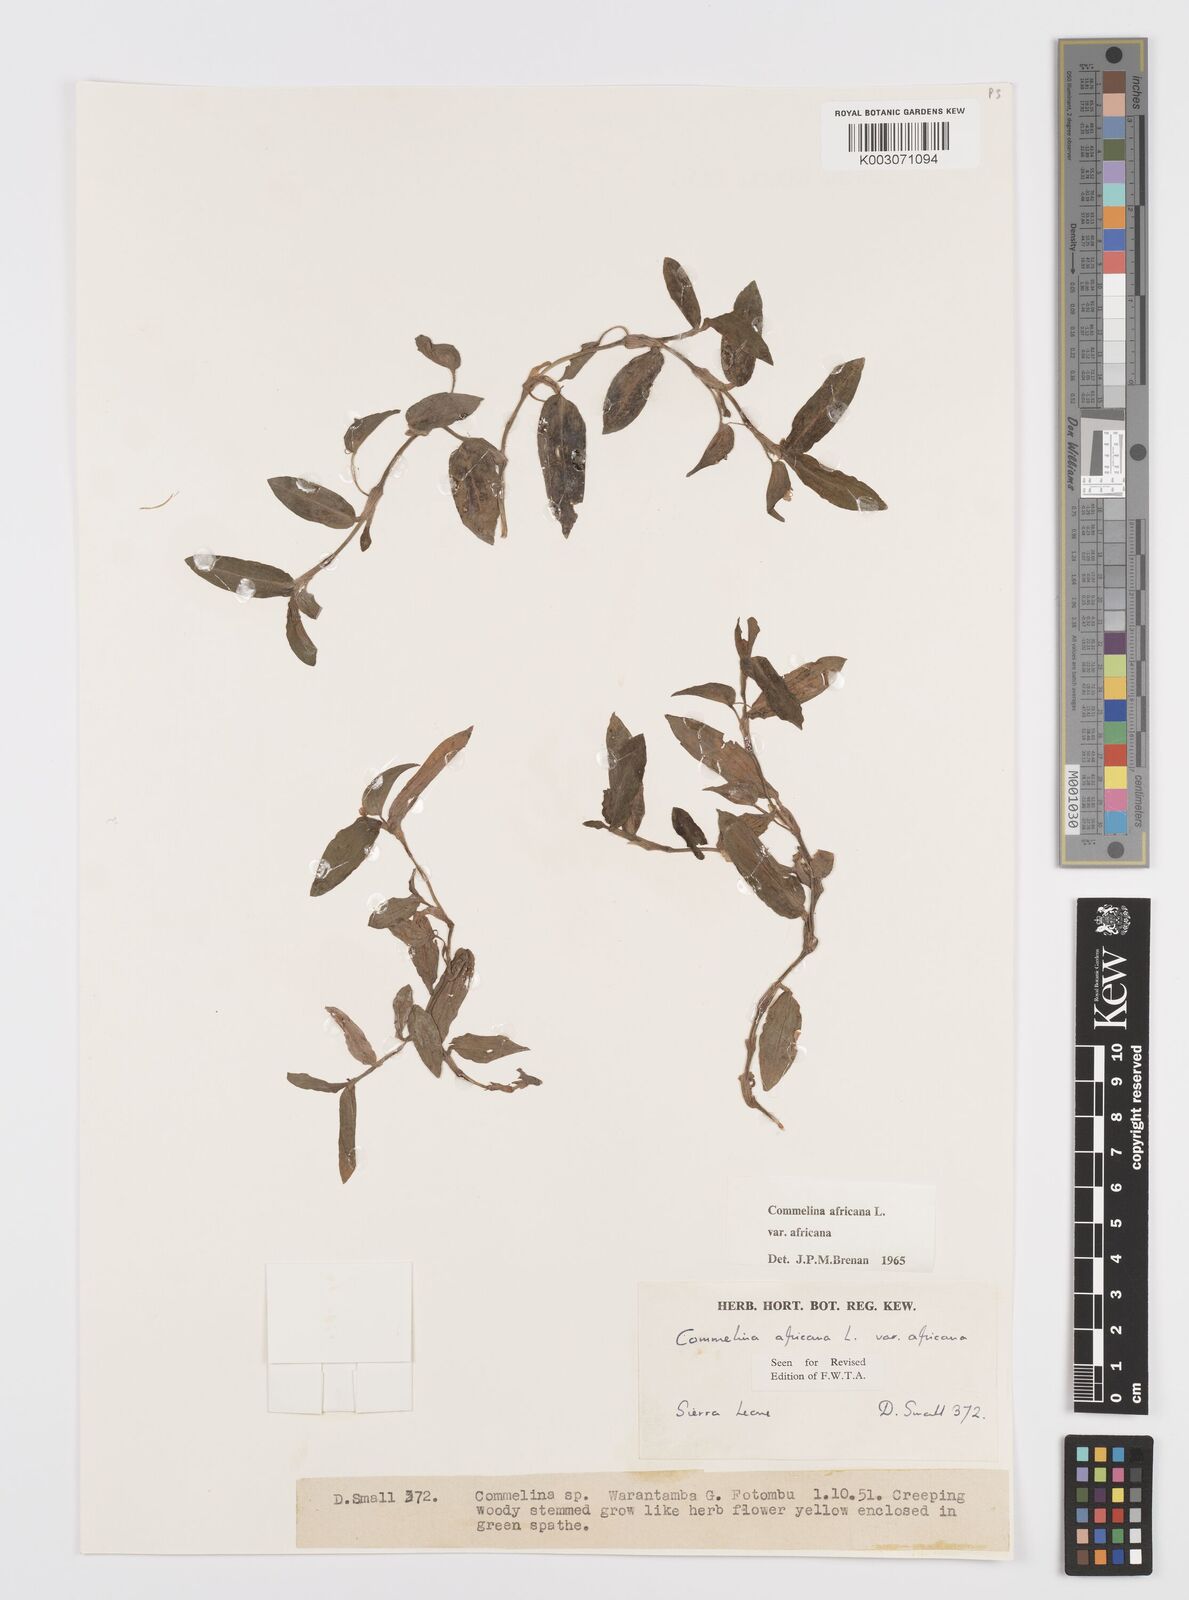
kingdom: Plantae
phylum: Tracheophyta
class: Liliopsida
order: Commelinales
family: Commelinaceae
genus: Commelina
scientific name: Commelina africana
